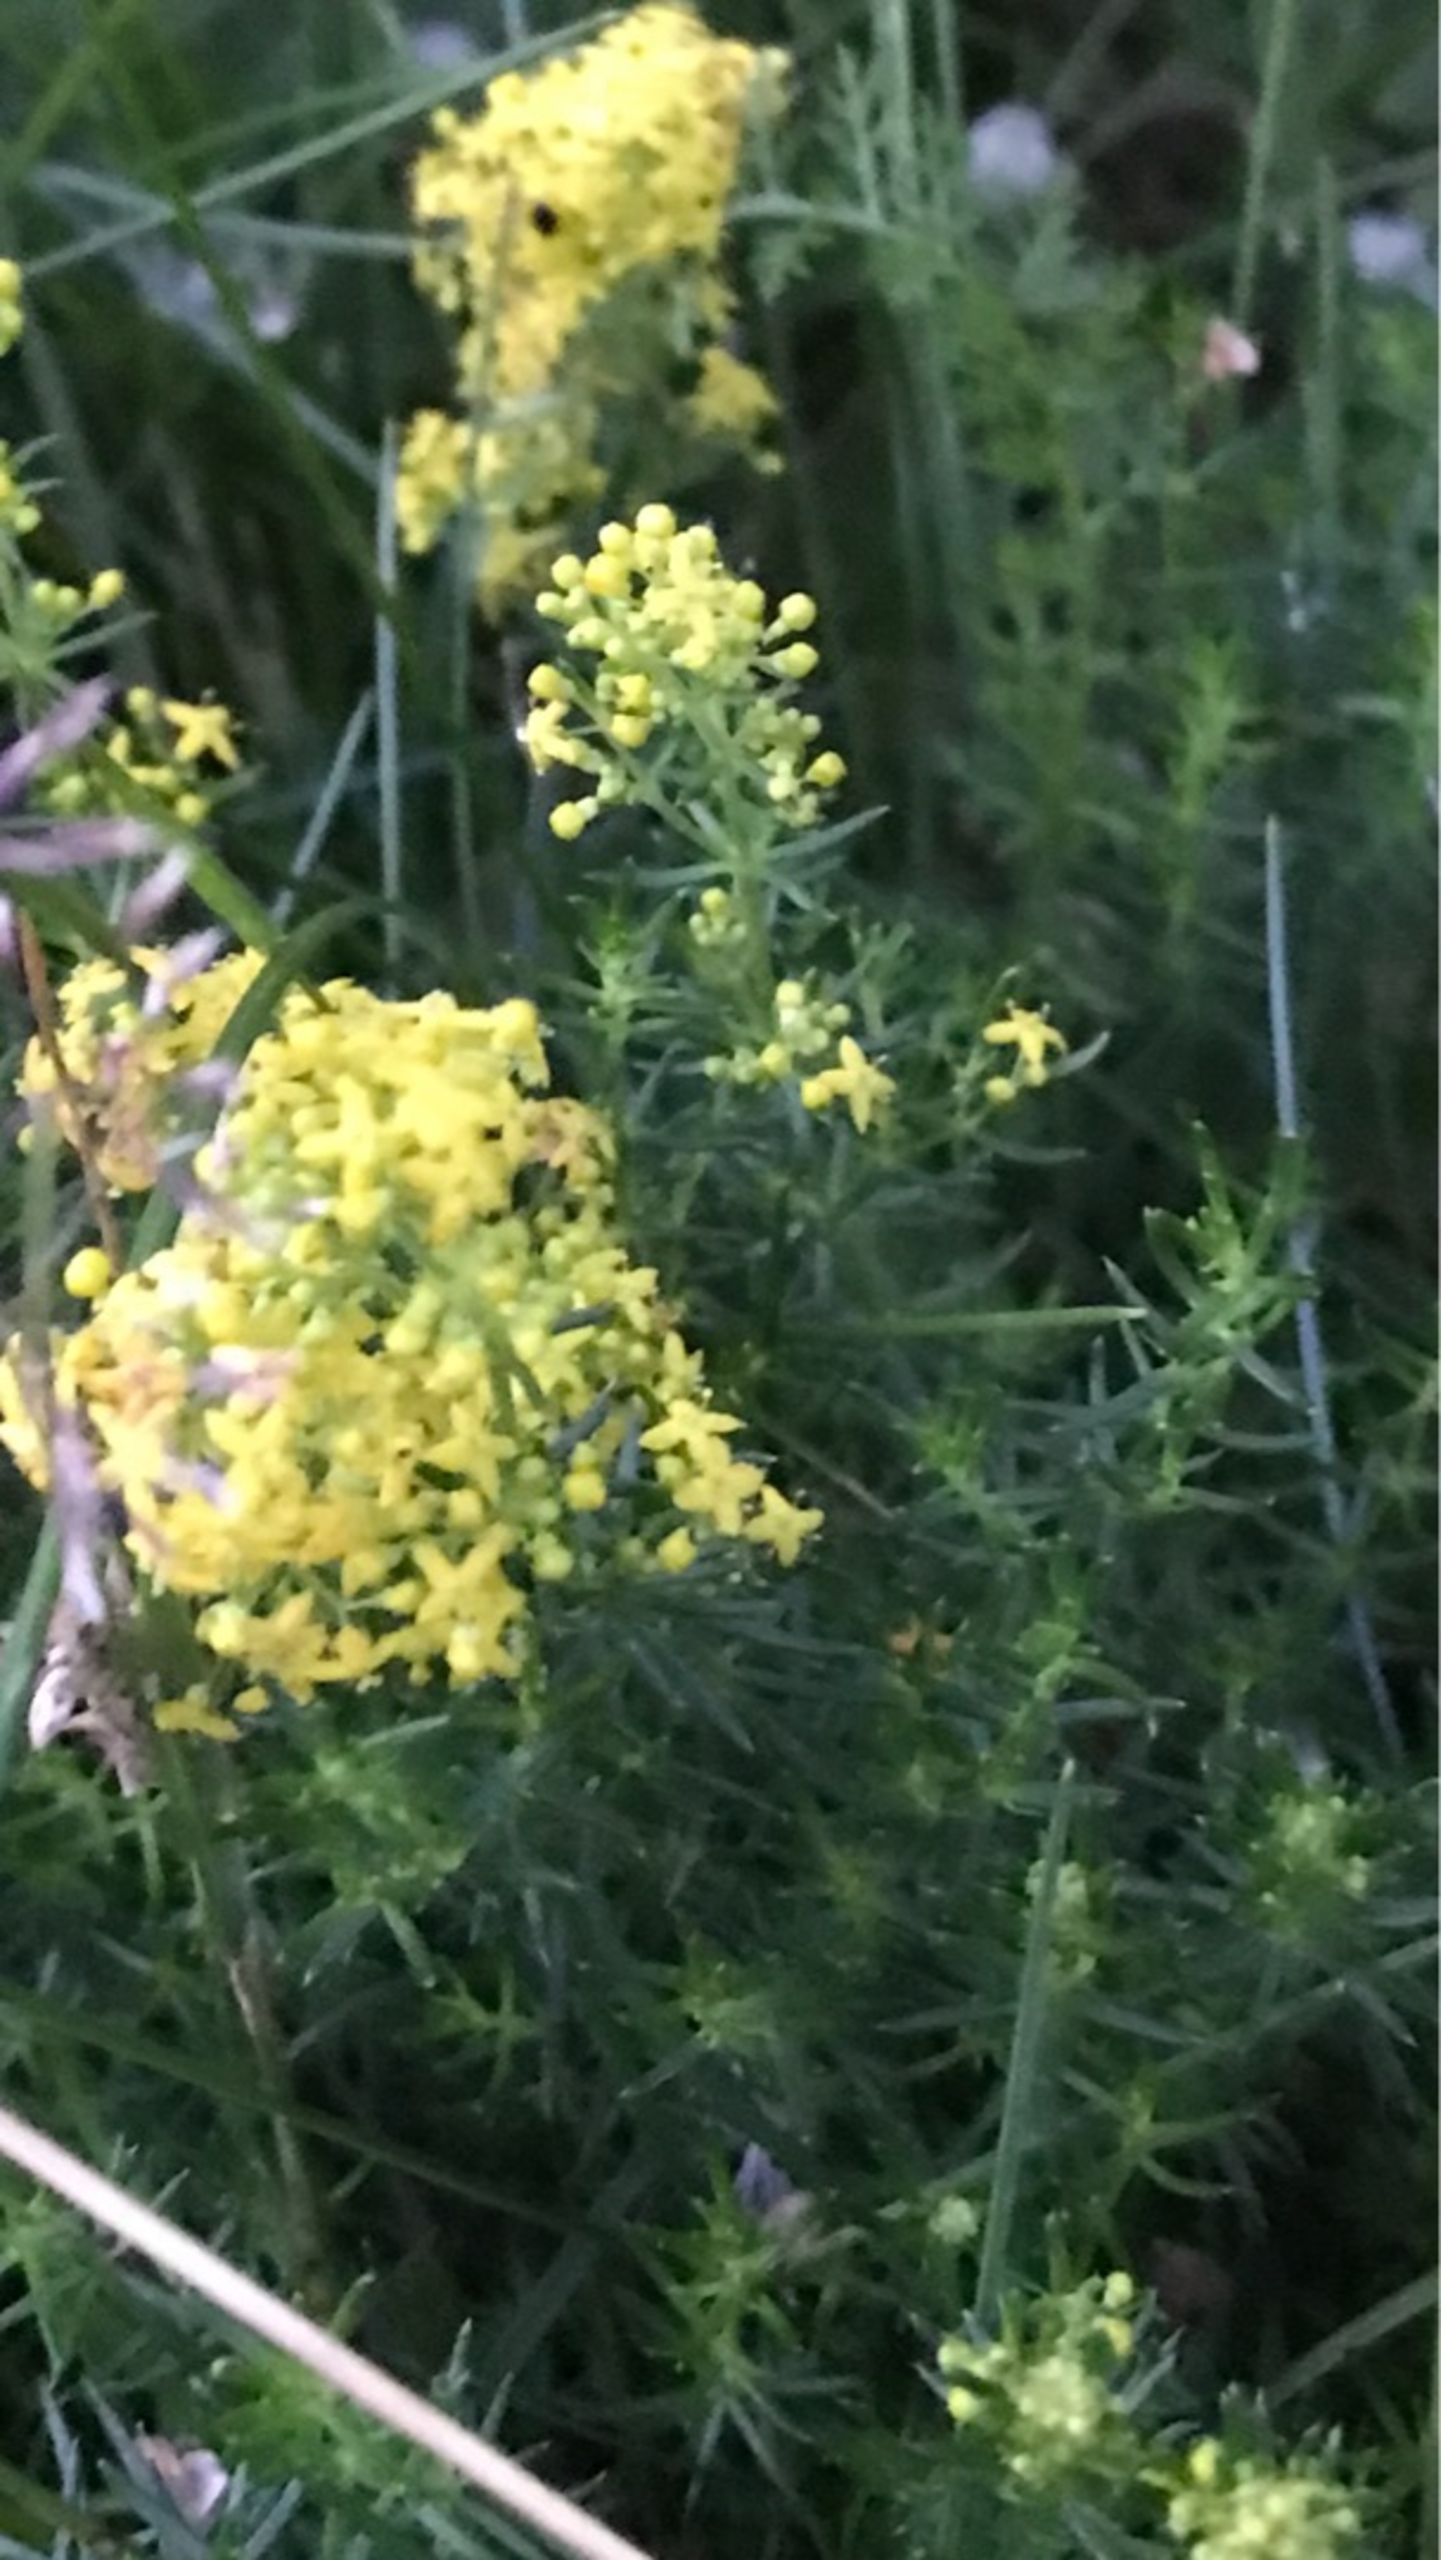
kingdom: Plantae
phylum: Tracheophyta
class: Magnoliopsida
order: Gentianales
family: Rubiaceae
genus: Galium
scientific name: Galium verum
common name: Gul snerre
